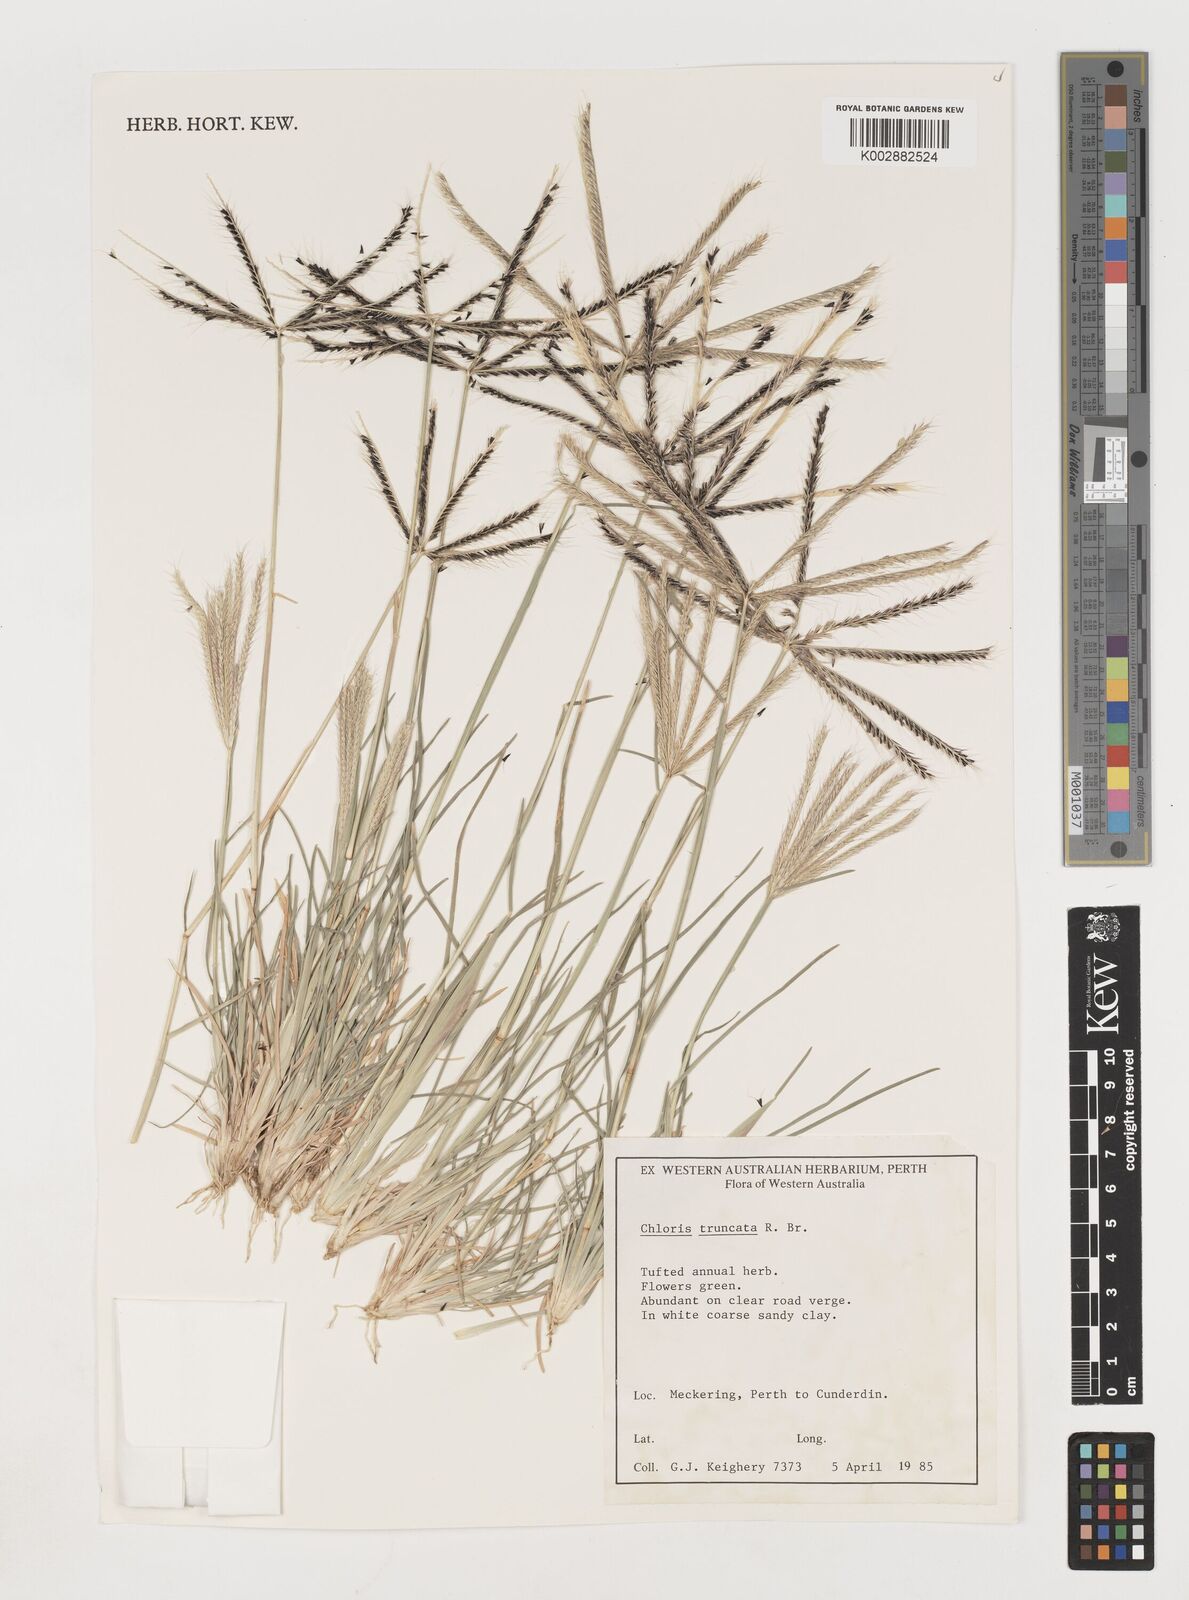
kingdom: Plantae
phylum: Tracheophyta
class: Liliopsida
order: Poales
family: Poaceae
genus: Chloris
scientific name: Chloris truncata
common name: Windmill-grass
